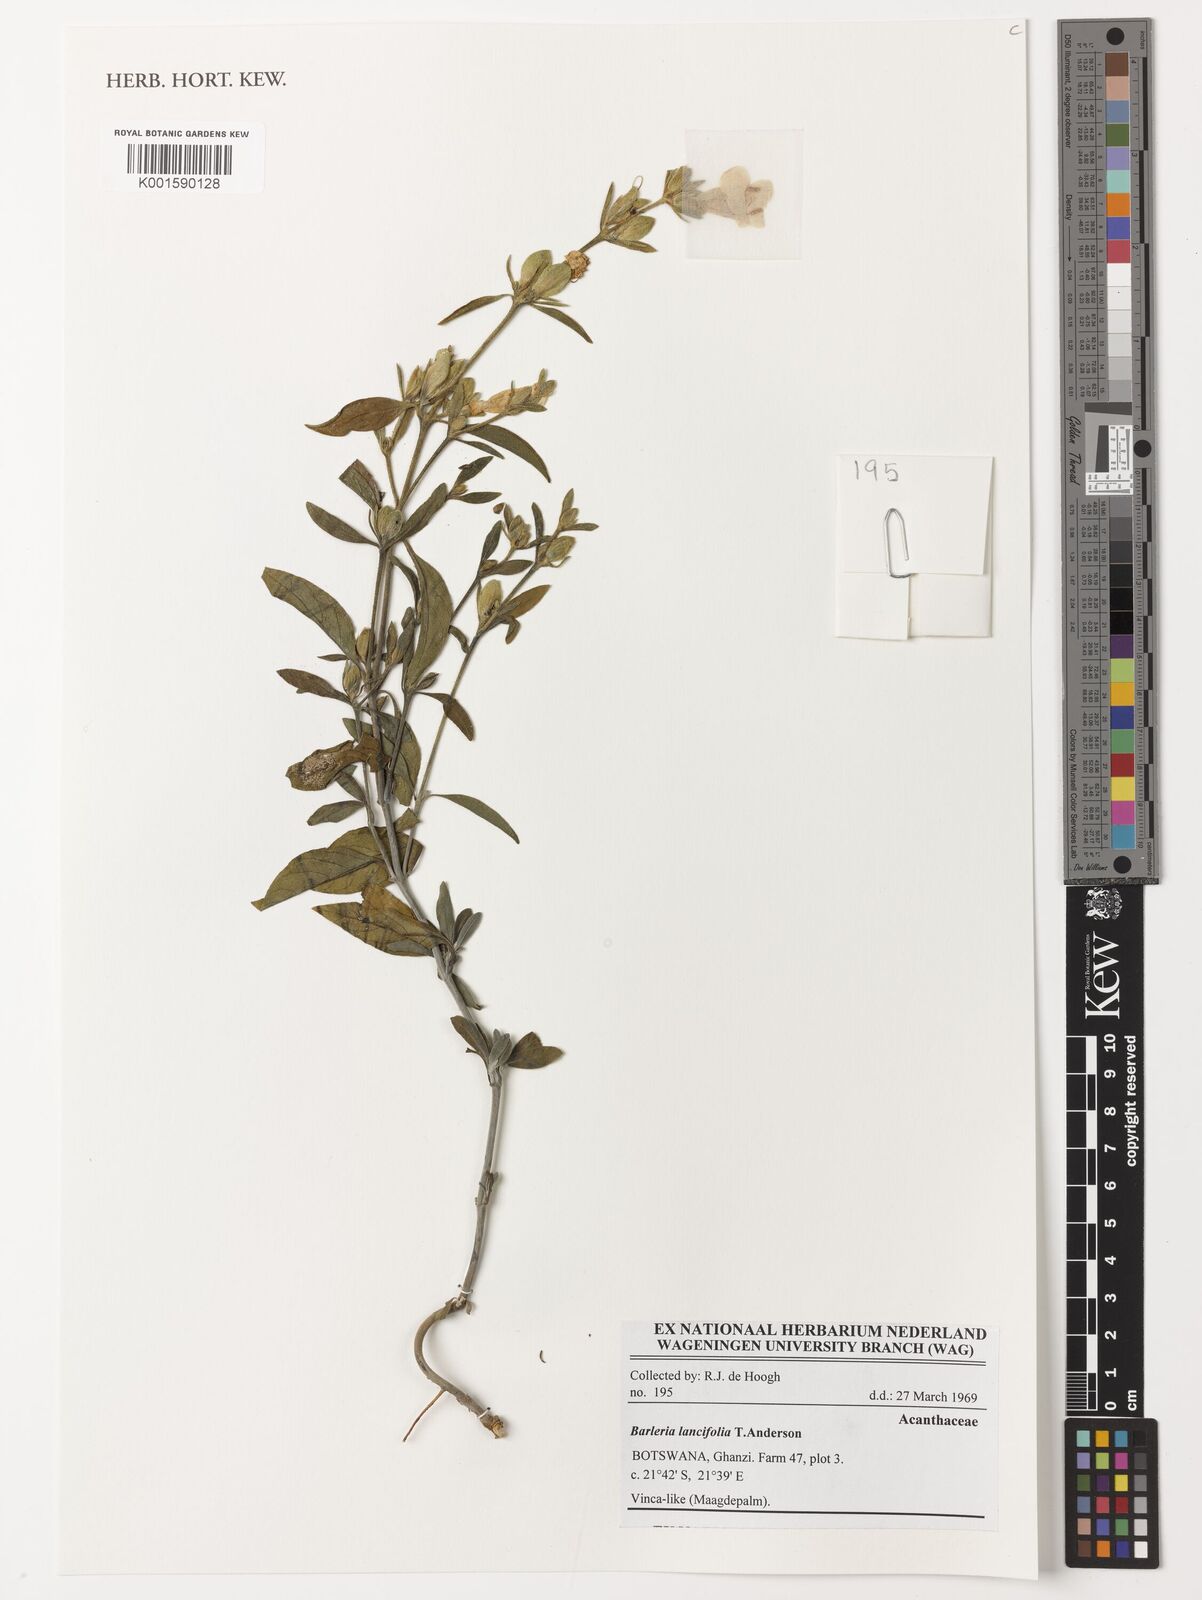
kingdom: Plantae
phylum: Tracheophyta
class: Magnoliopsida
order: Lamiales
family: Acanthaceae
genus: Barleria
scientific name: Barleria lancifolia
